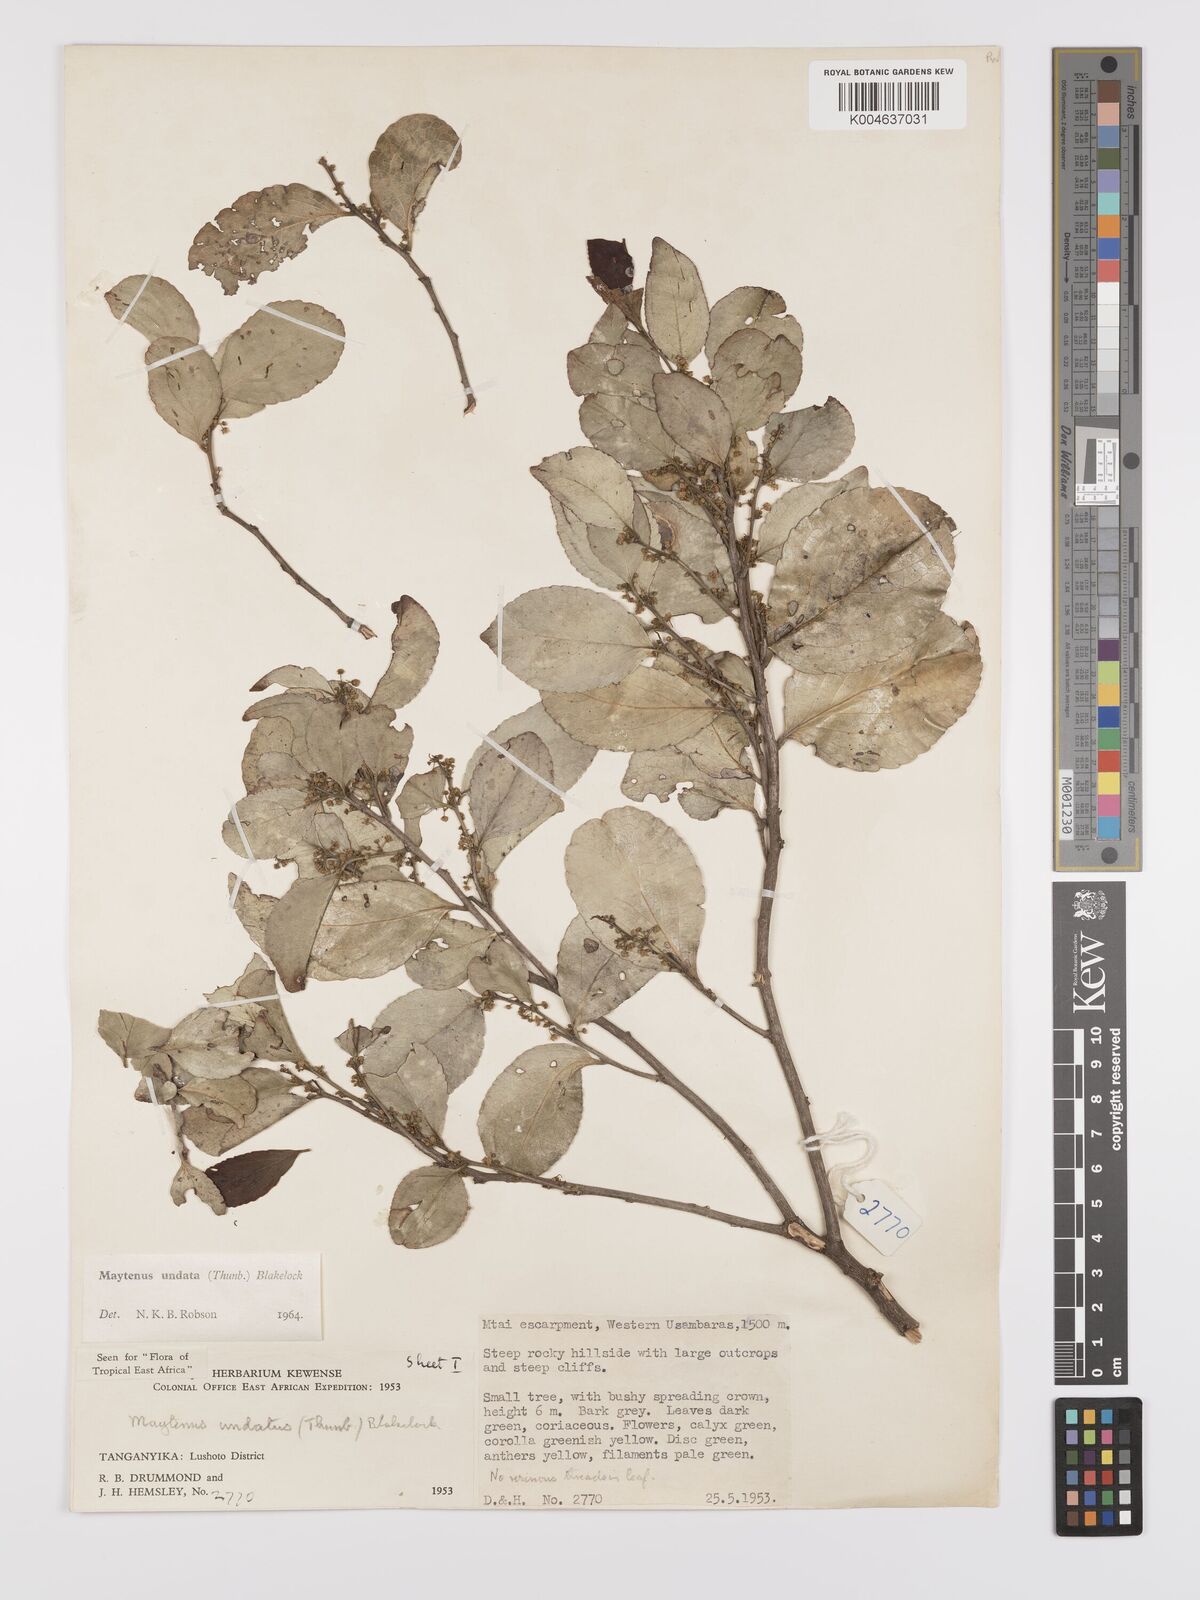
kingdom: Plantae
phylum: Tracheophyta
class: Magnoliopsida
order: Celastrales
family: Celastraceae
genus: Gymnosporia
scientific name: Gymnosporia undata
